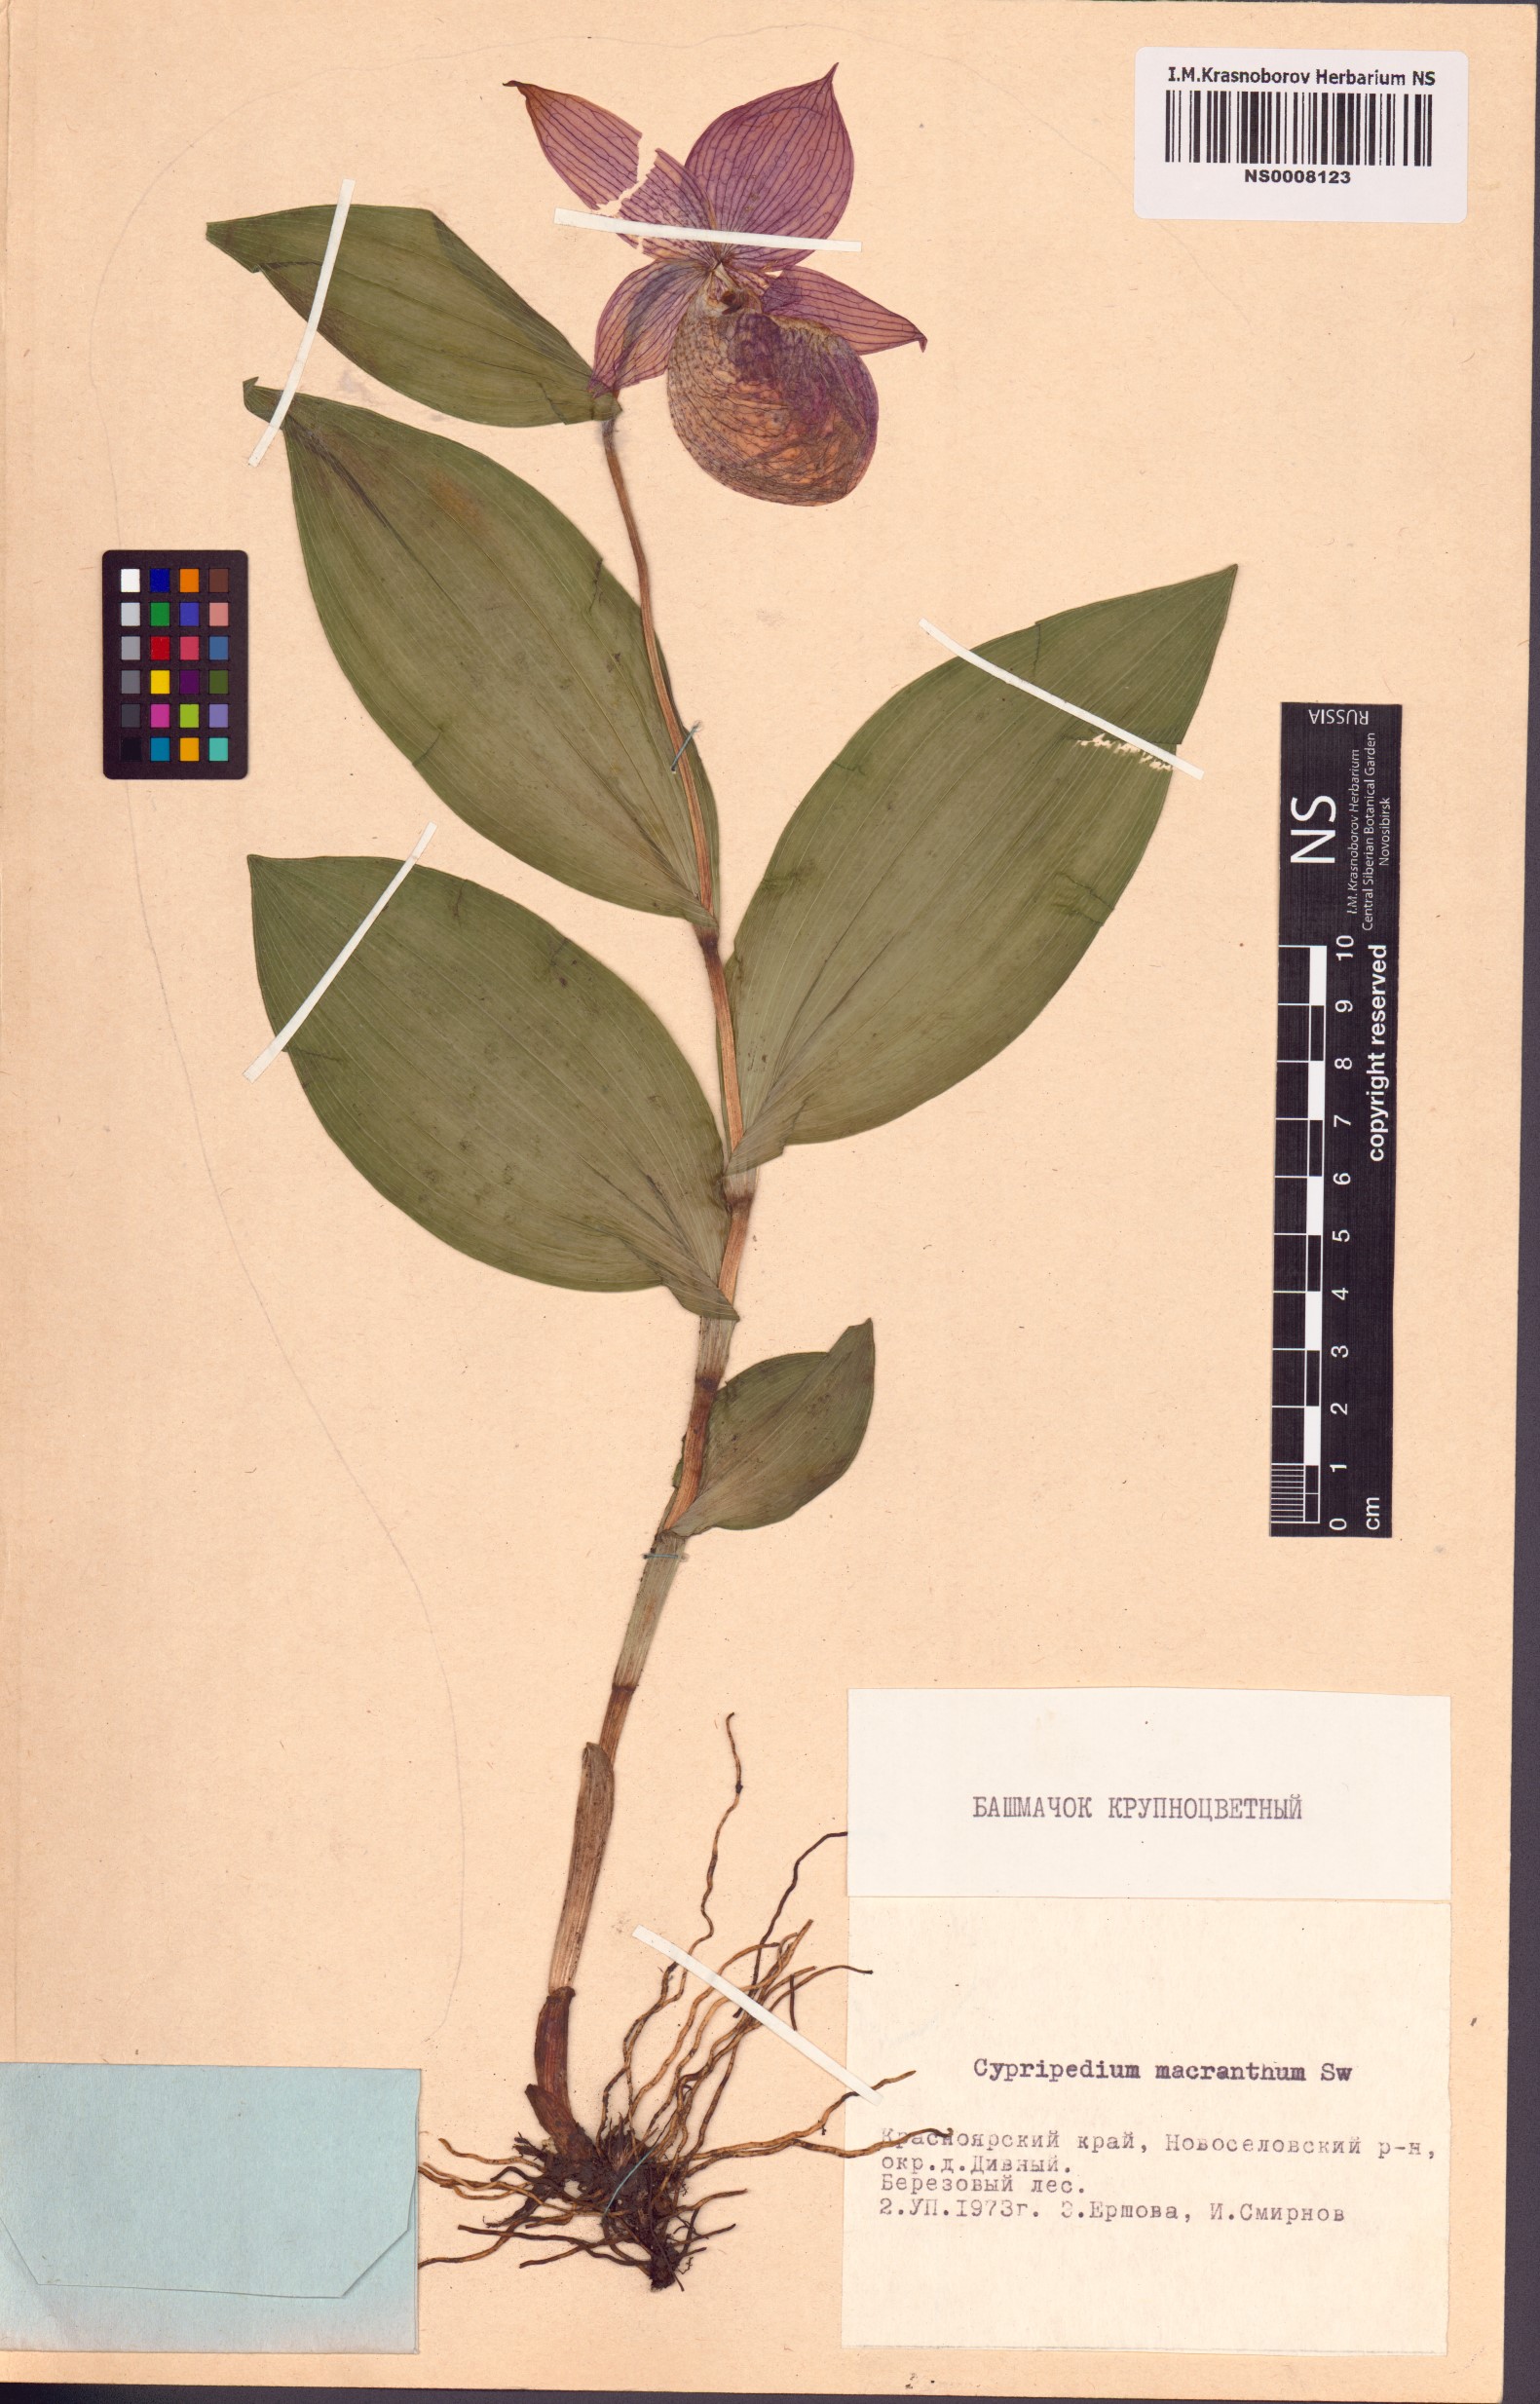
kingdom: Plantae
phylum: Tracheophyta
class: Liliopsida
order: Asparagales
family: Orchidaceae
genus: Cypripedium
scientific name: Cypripedium macranthos
